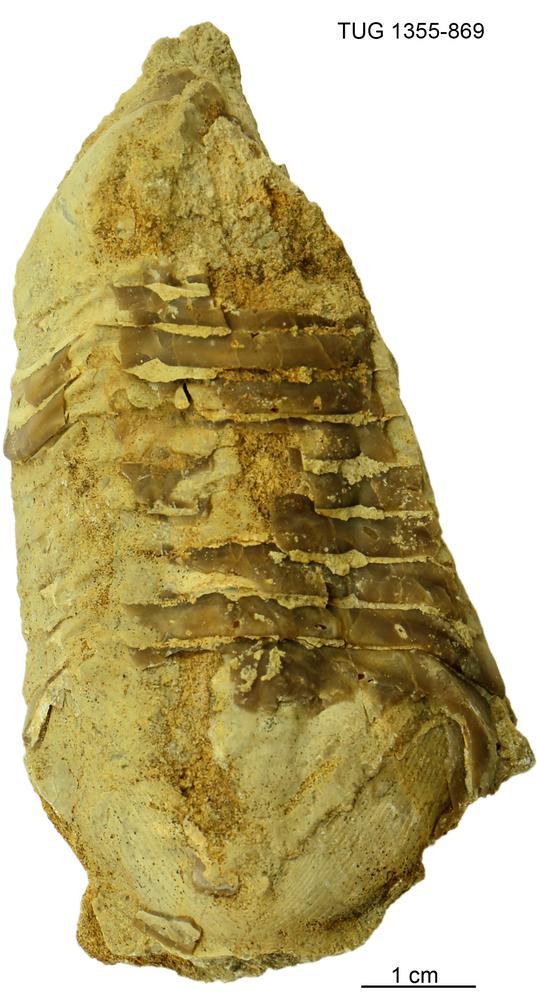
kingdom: Animalia
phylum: Arthropoda
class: Trilobita
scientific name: Trilobita
